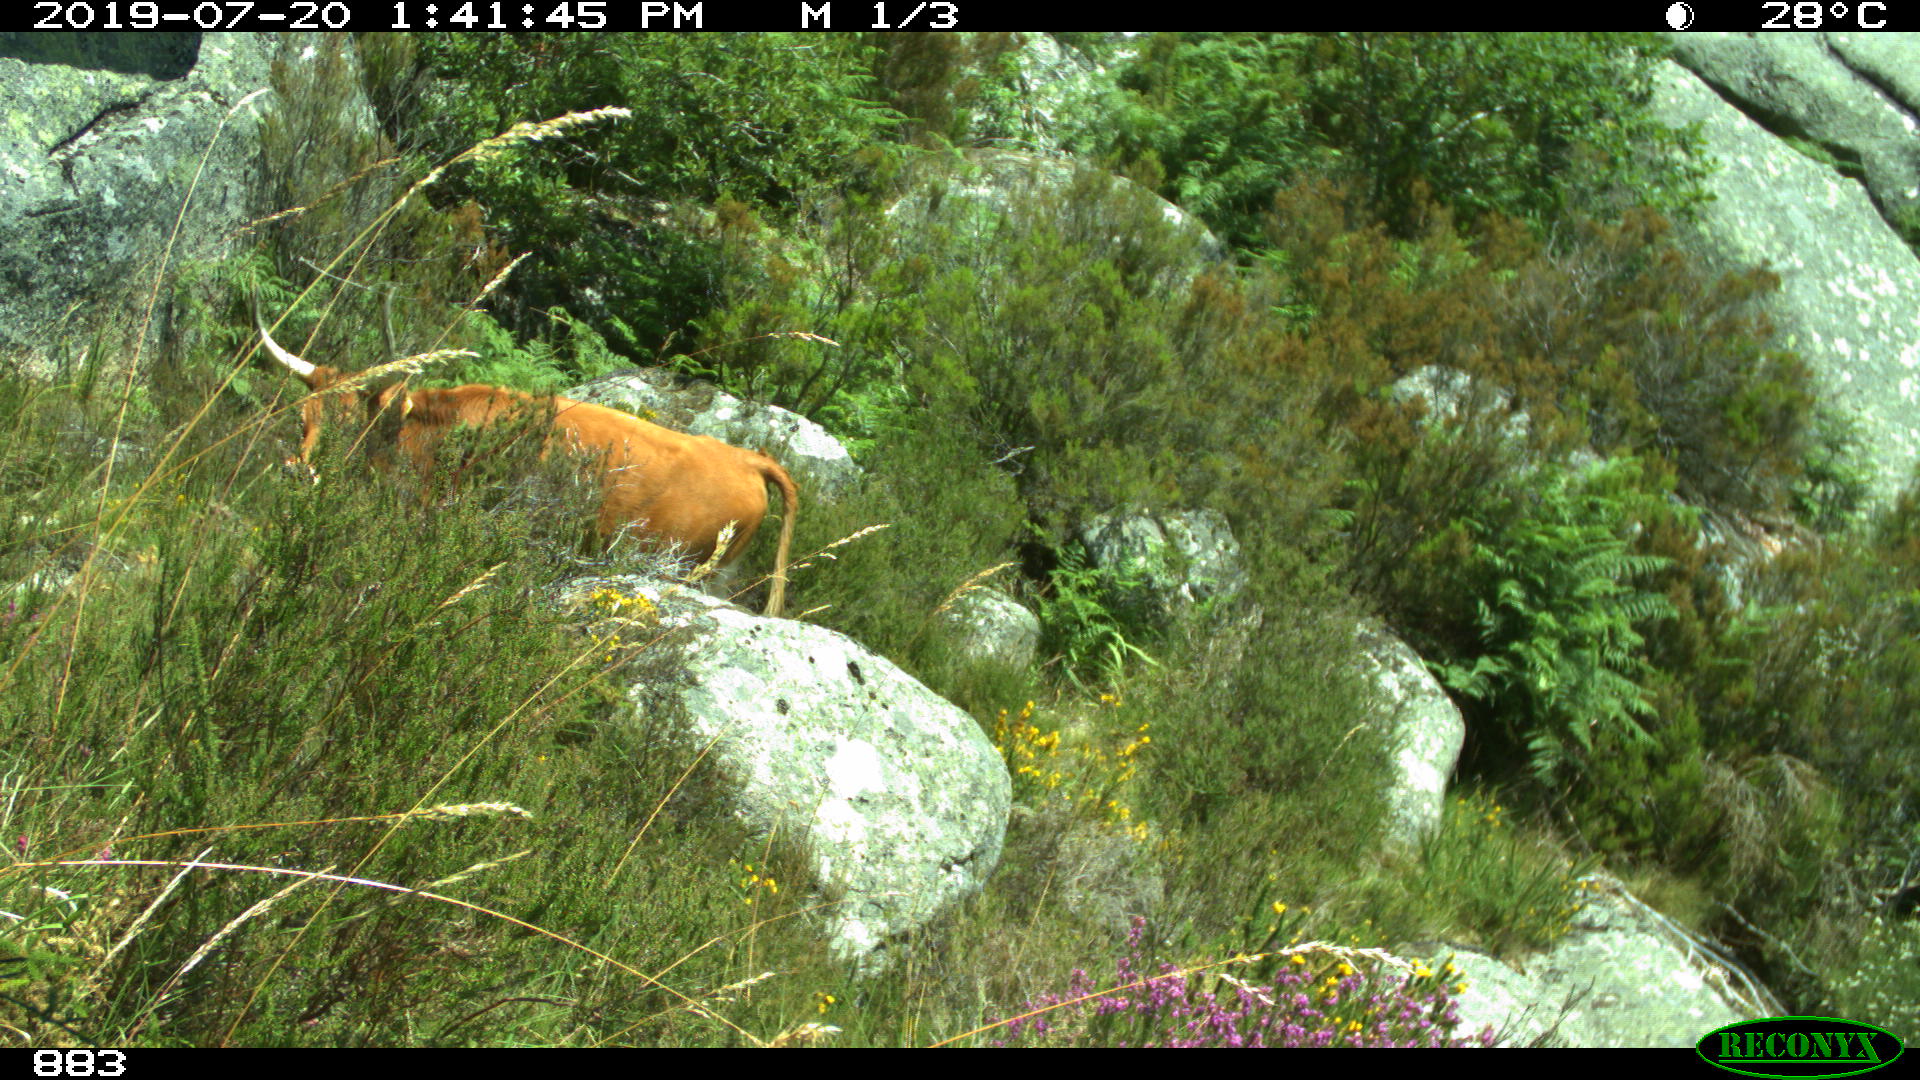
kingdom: Animalia
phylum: Chordata
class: Mammalia
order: Artiodactyla
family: Bovidae
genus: Bos
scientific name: Bos taurus
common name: Domesticated cattle
